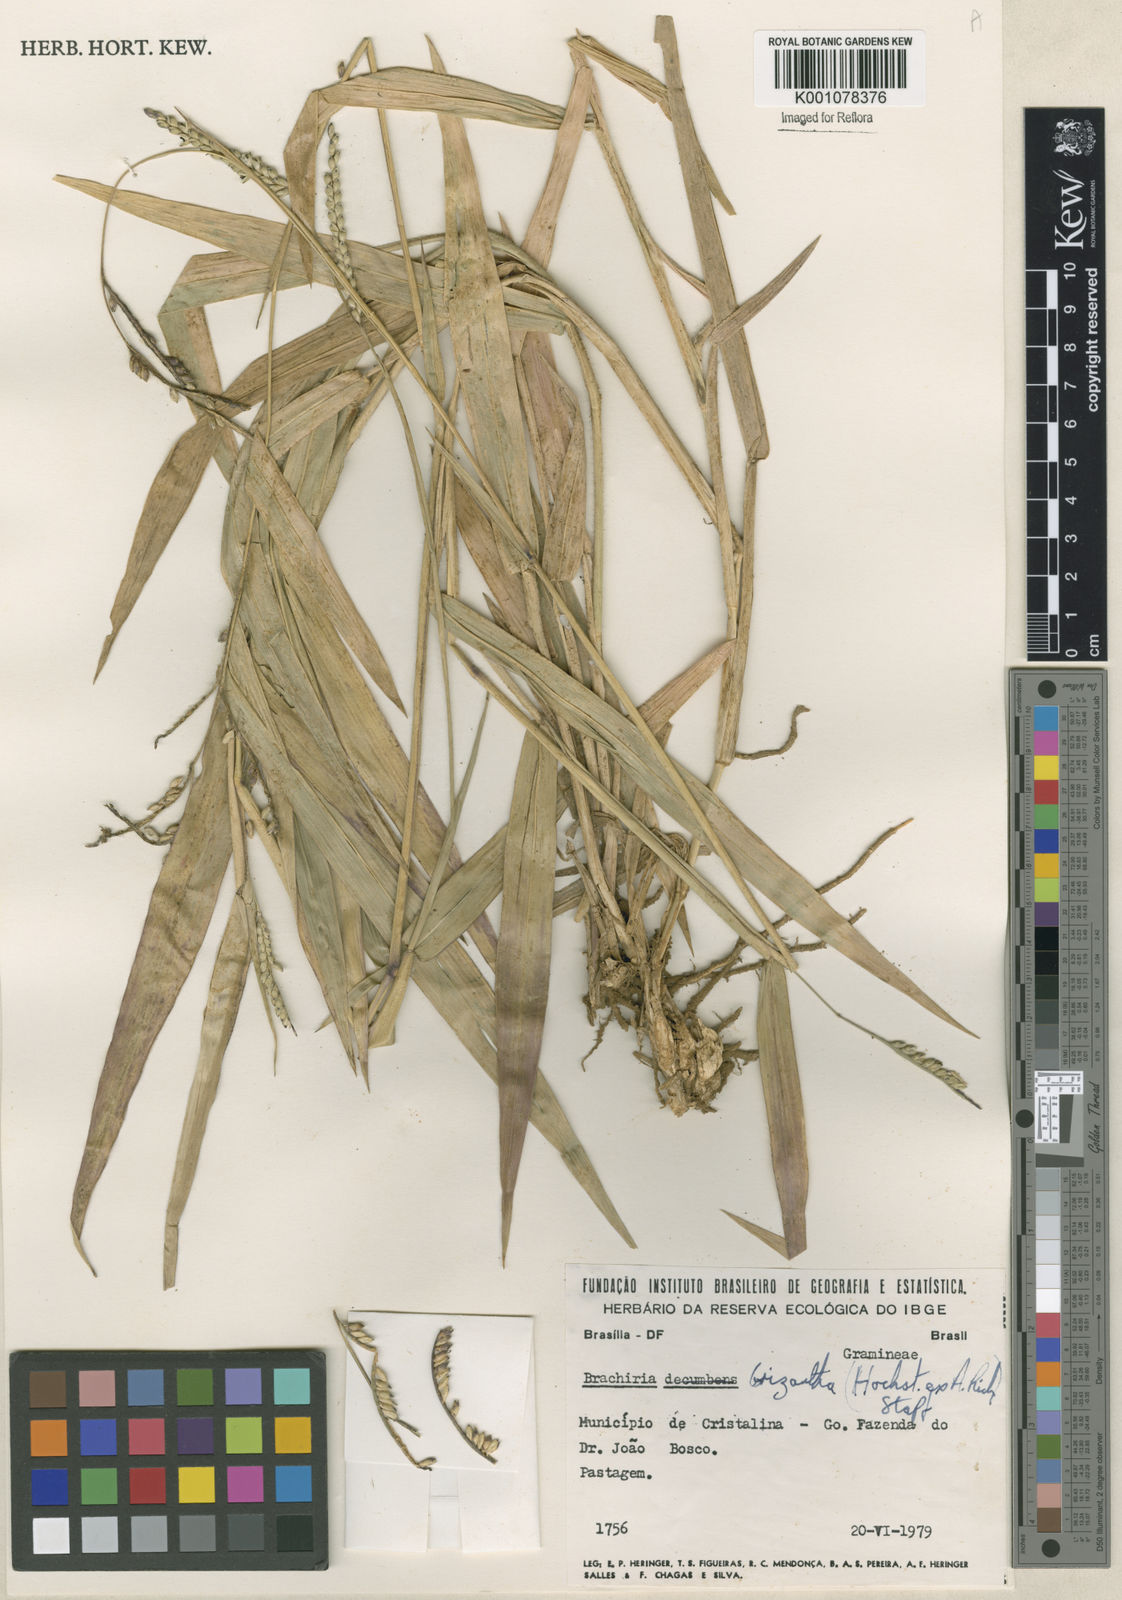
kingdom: Plantae
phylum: Tracheophyta
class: Liliopsida
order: Poales
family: Poaceae
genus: Urochloa
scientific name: Urochloa brizantha
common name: Palisade signalgrass
